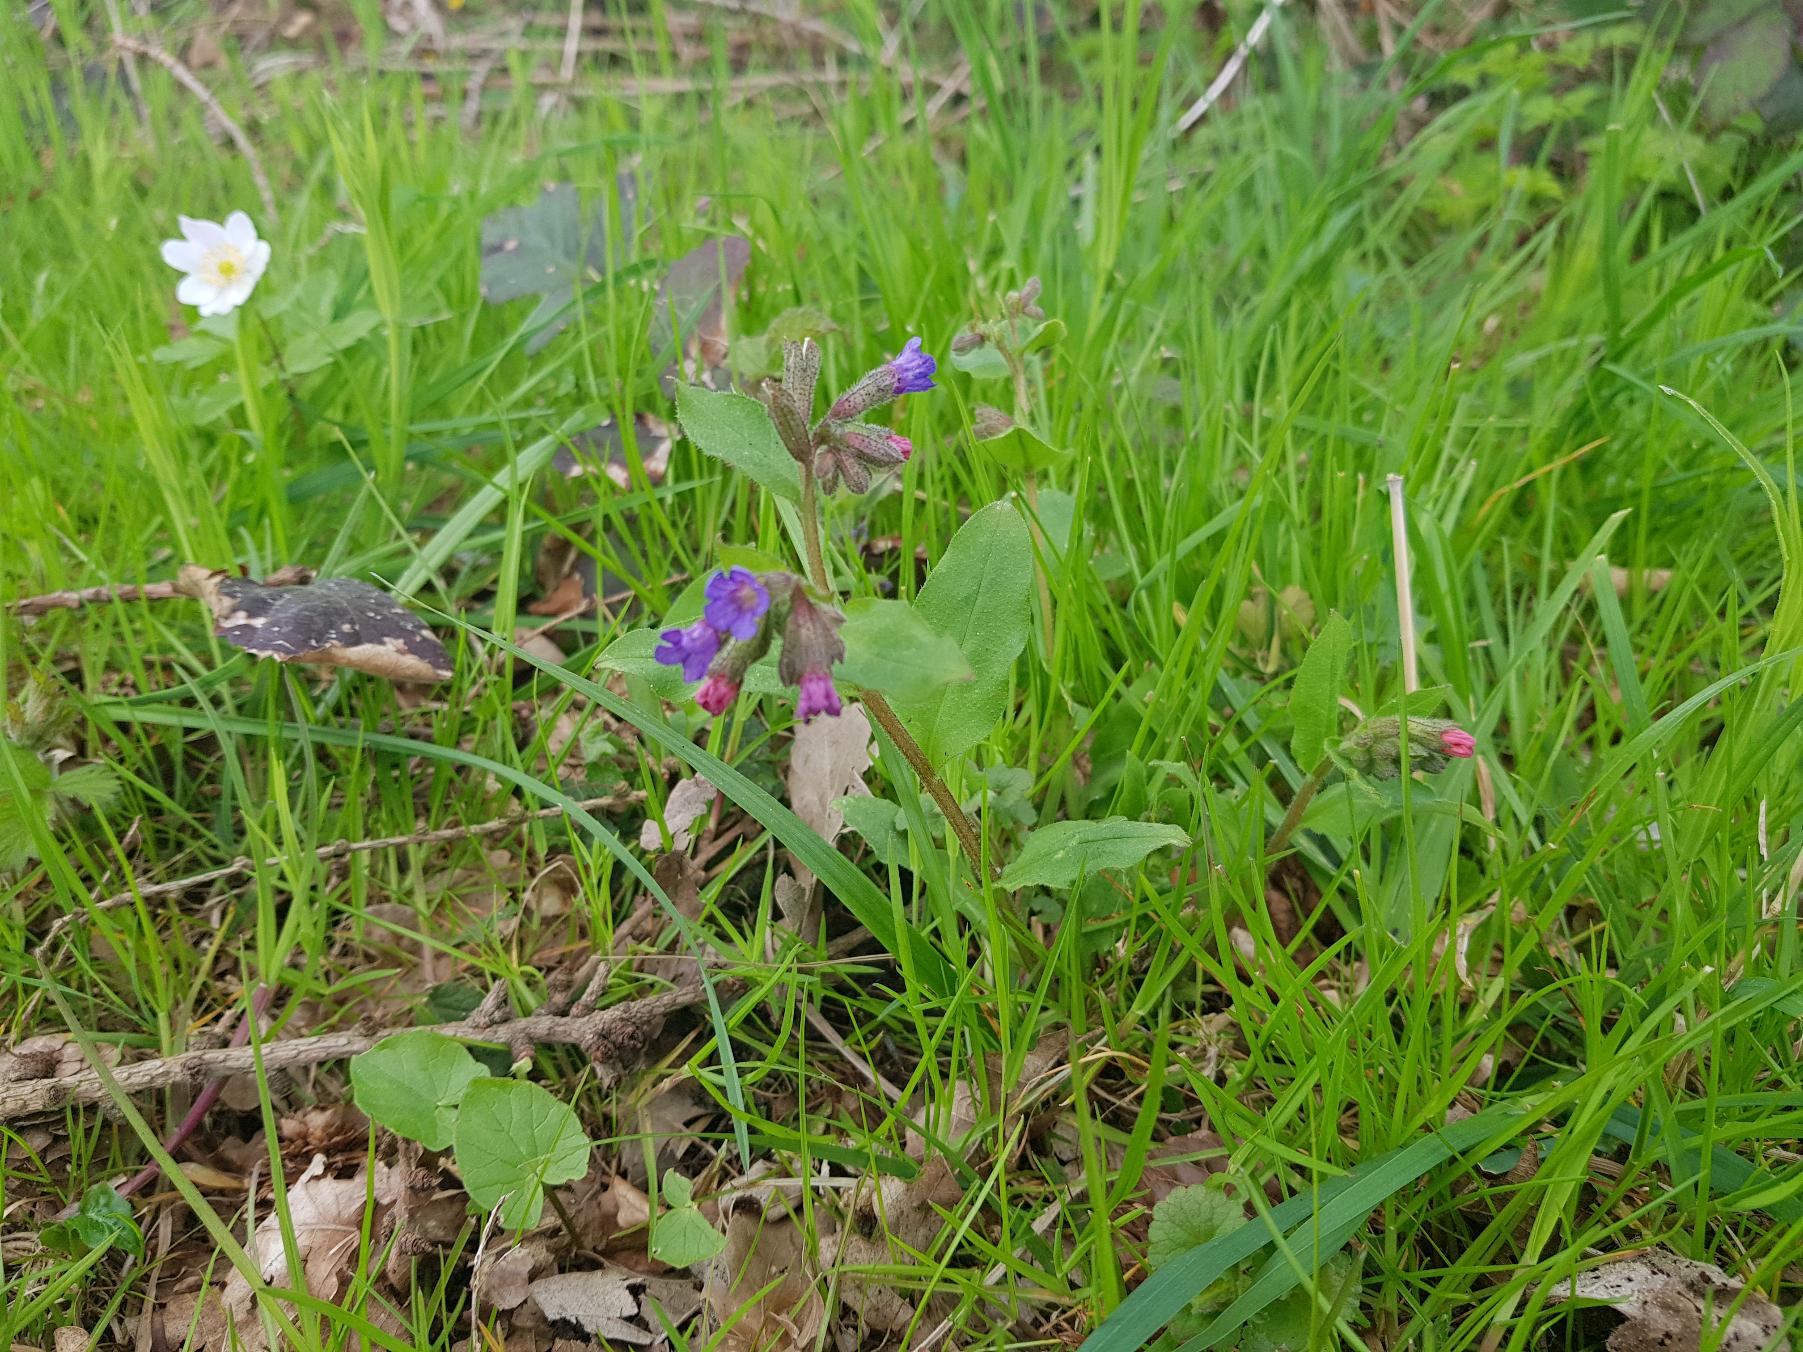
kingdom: Plantae
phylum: Tracheophyta
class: Magnoliopsida
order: Boraginales
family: Boraginaceae
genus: Pulmonaria
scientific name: Pulmonaria obscura
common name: Almindelig lungeurt
